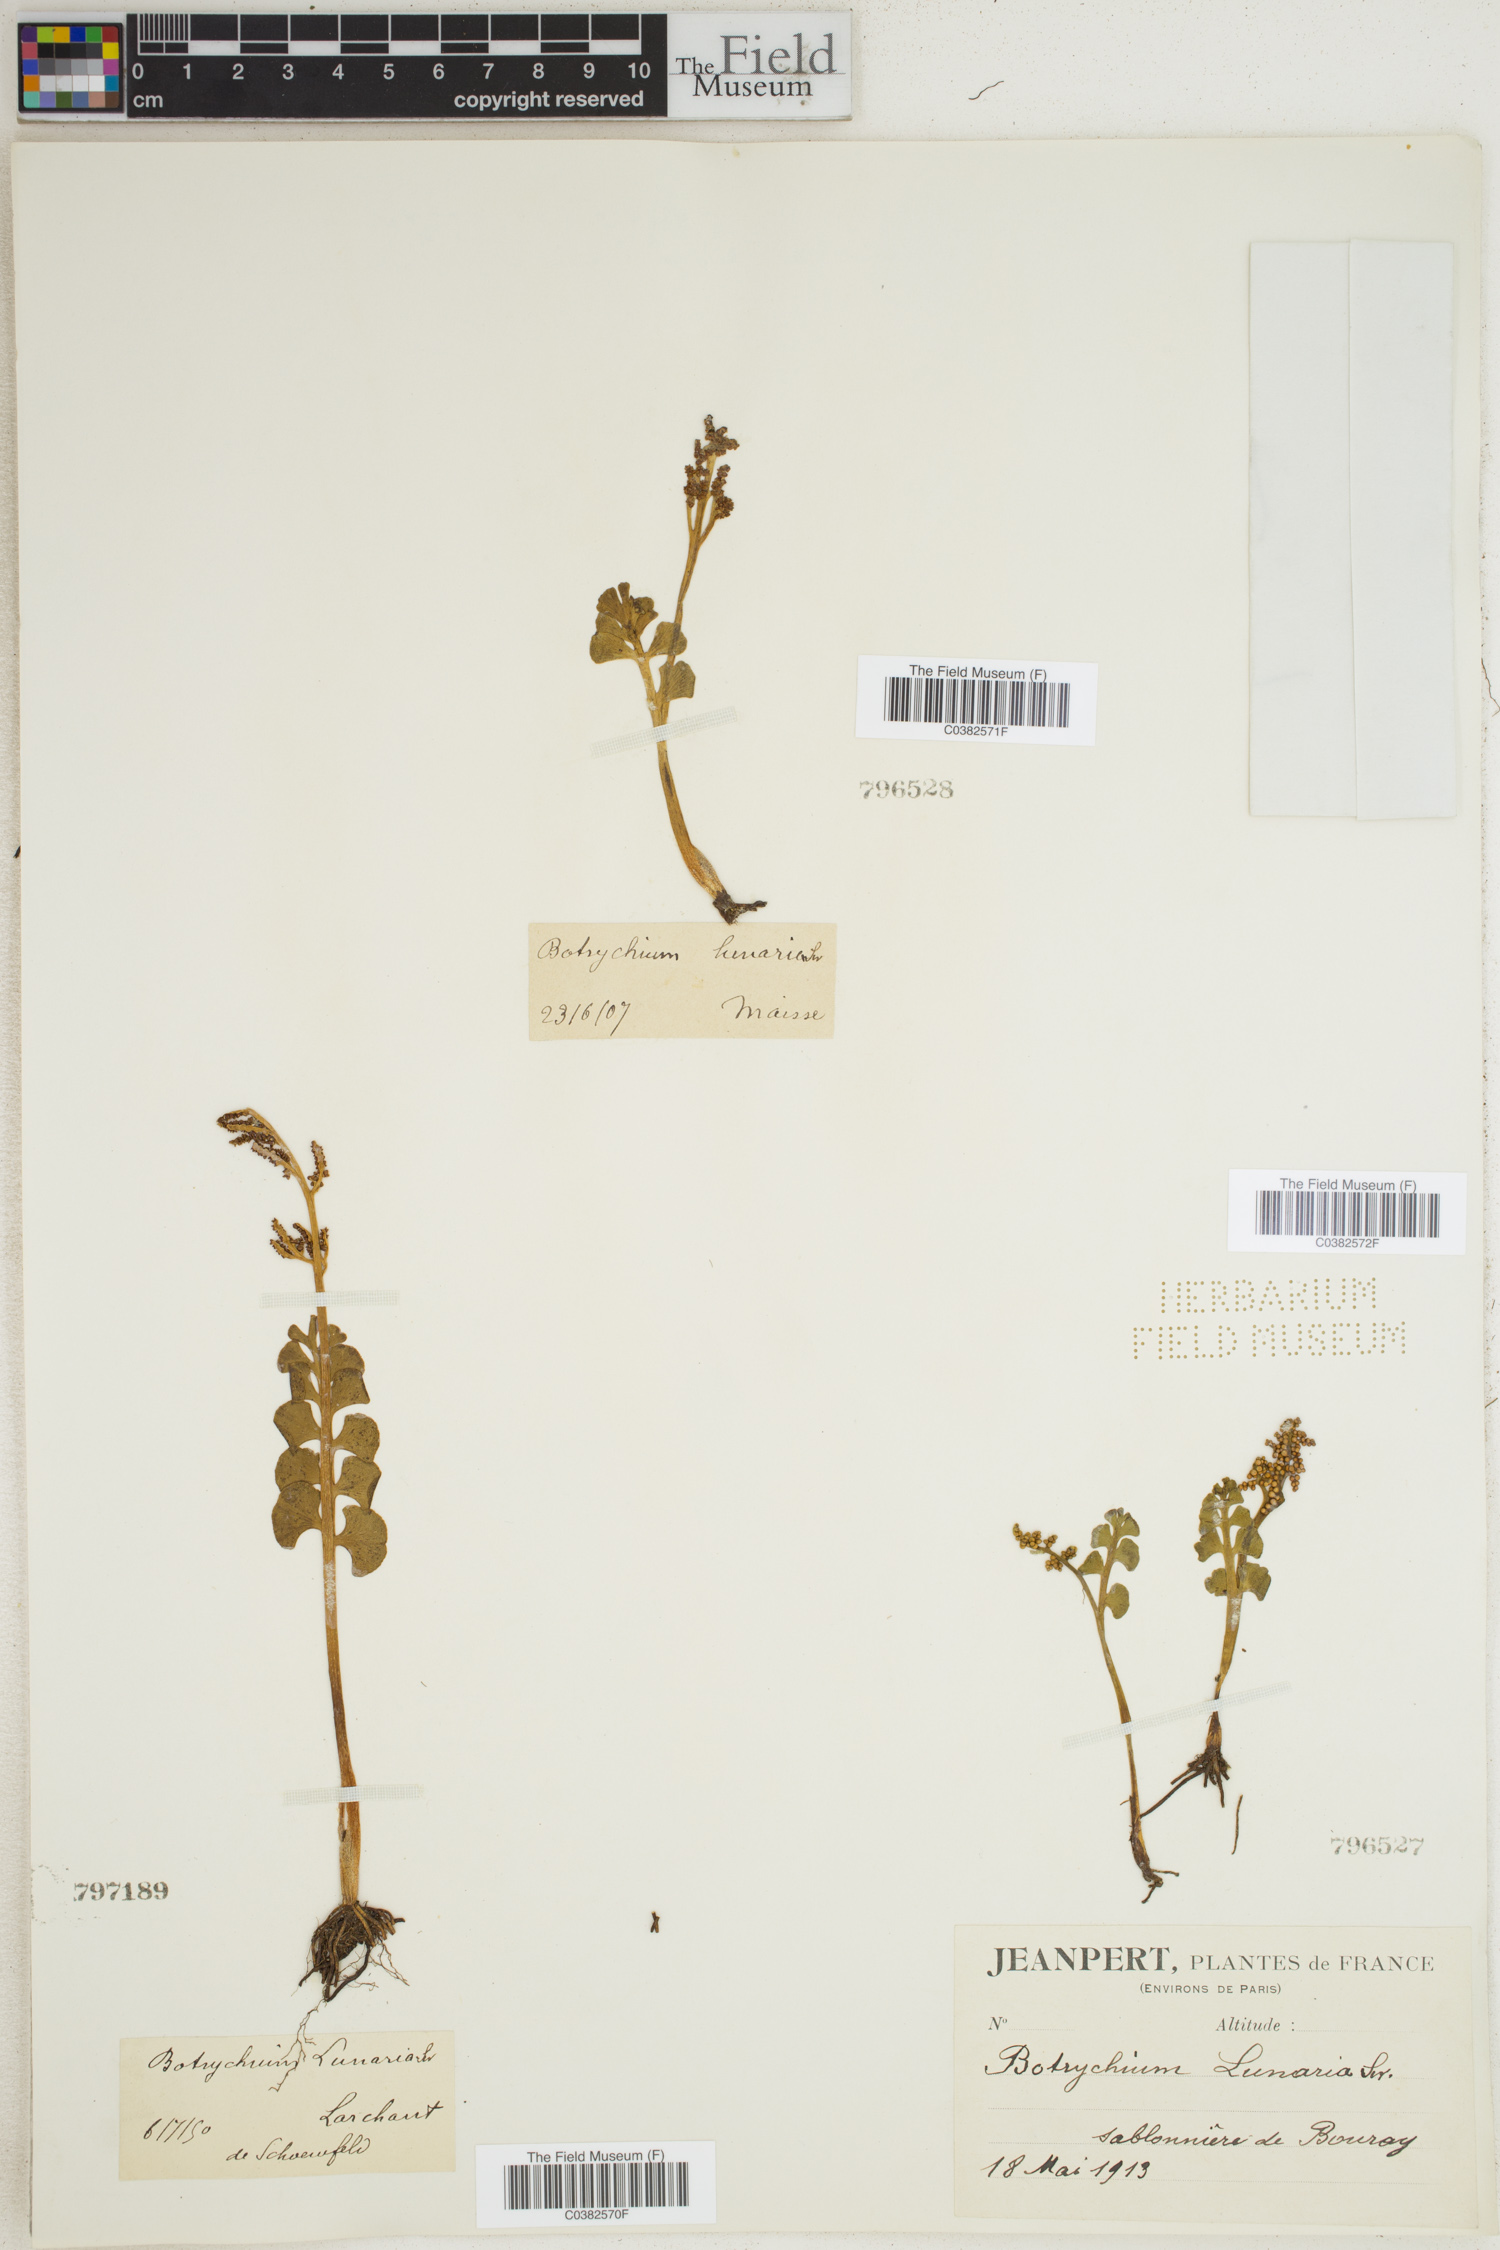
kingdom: Plantae
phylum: Tracheophyta
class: Polypodiopsida
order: Ophioglossales
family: Ophioglossaceae
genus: Botrychium
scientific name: Botrychium lunaria
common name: Moonwort
